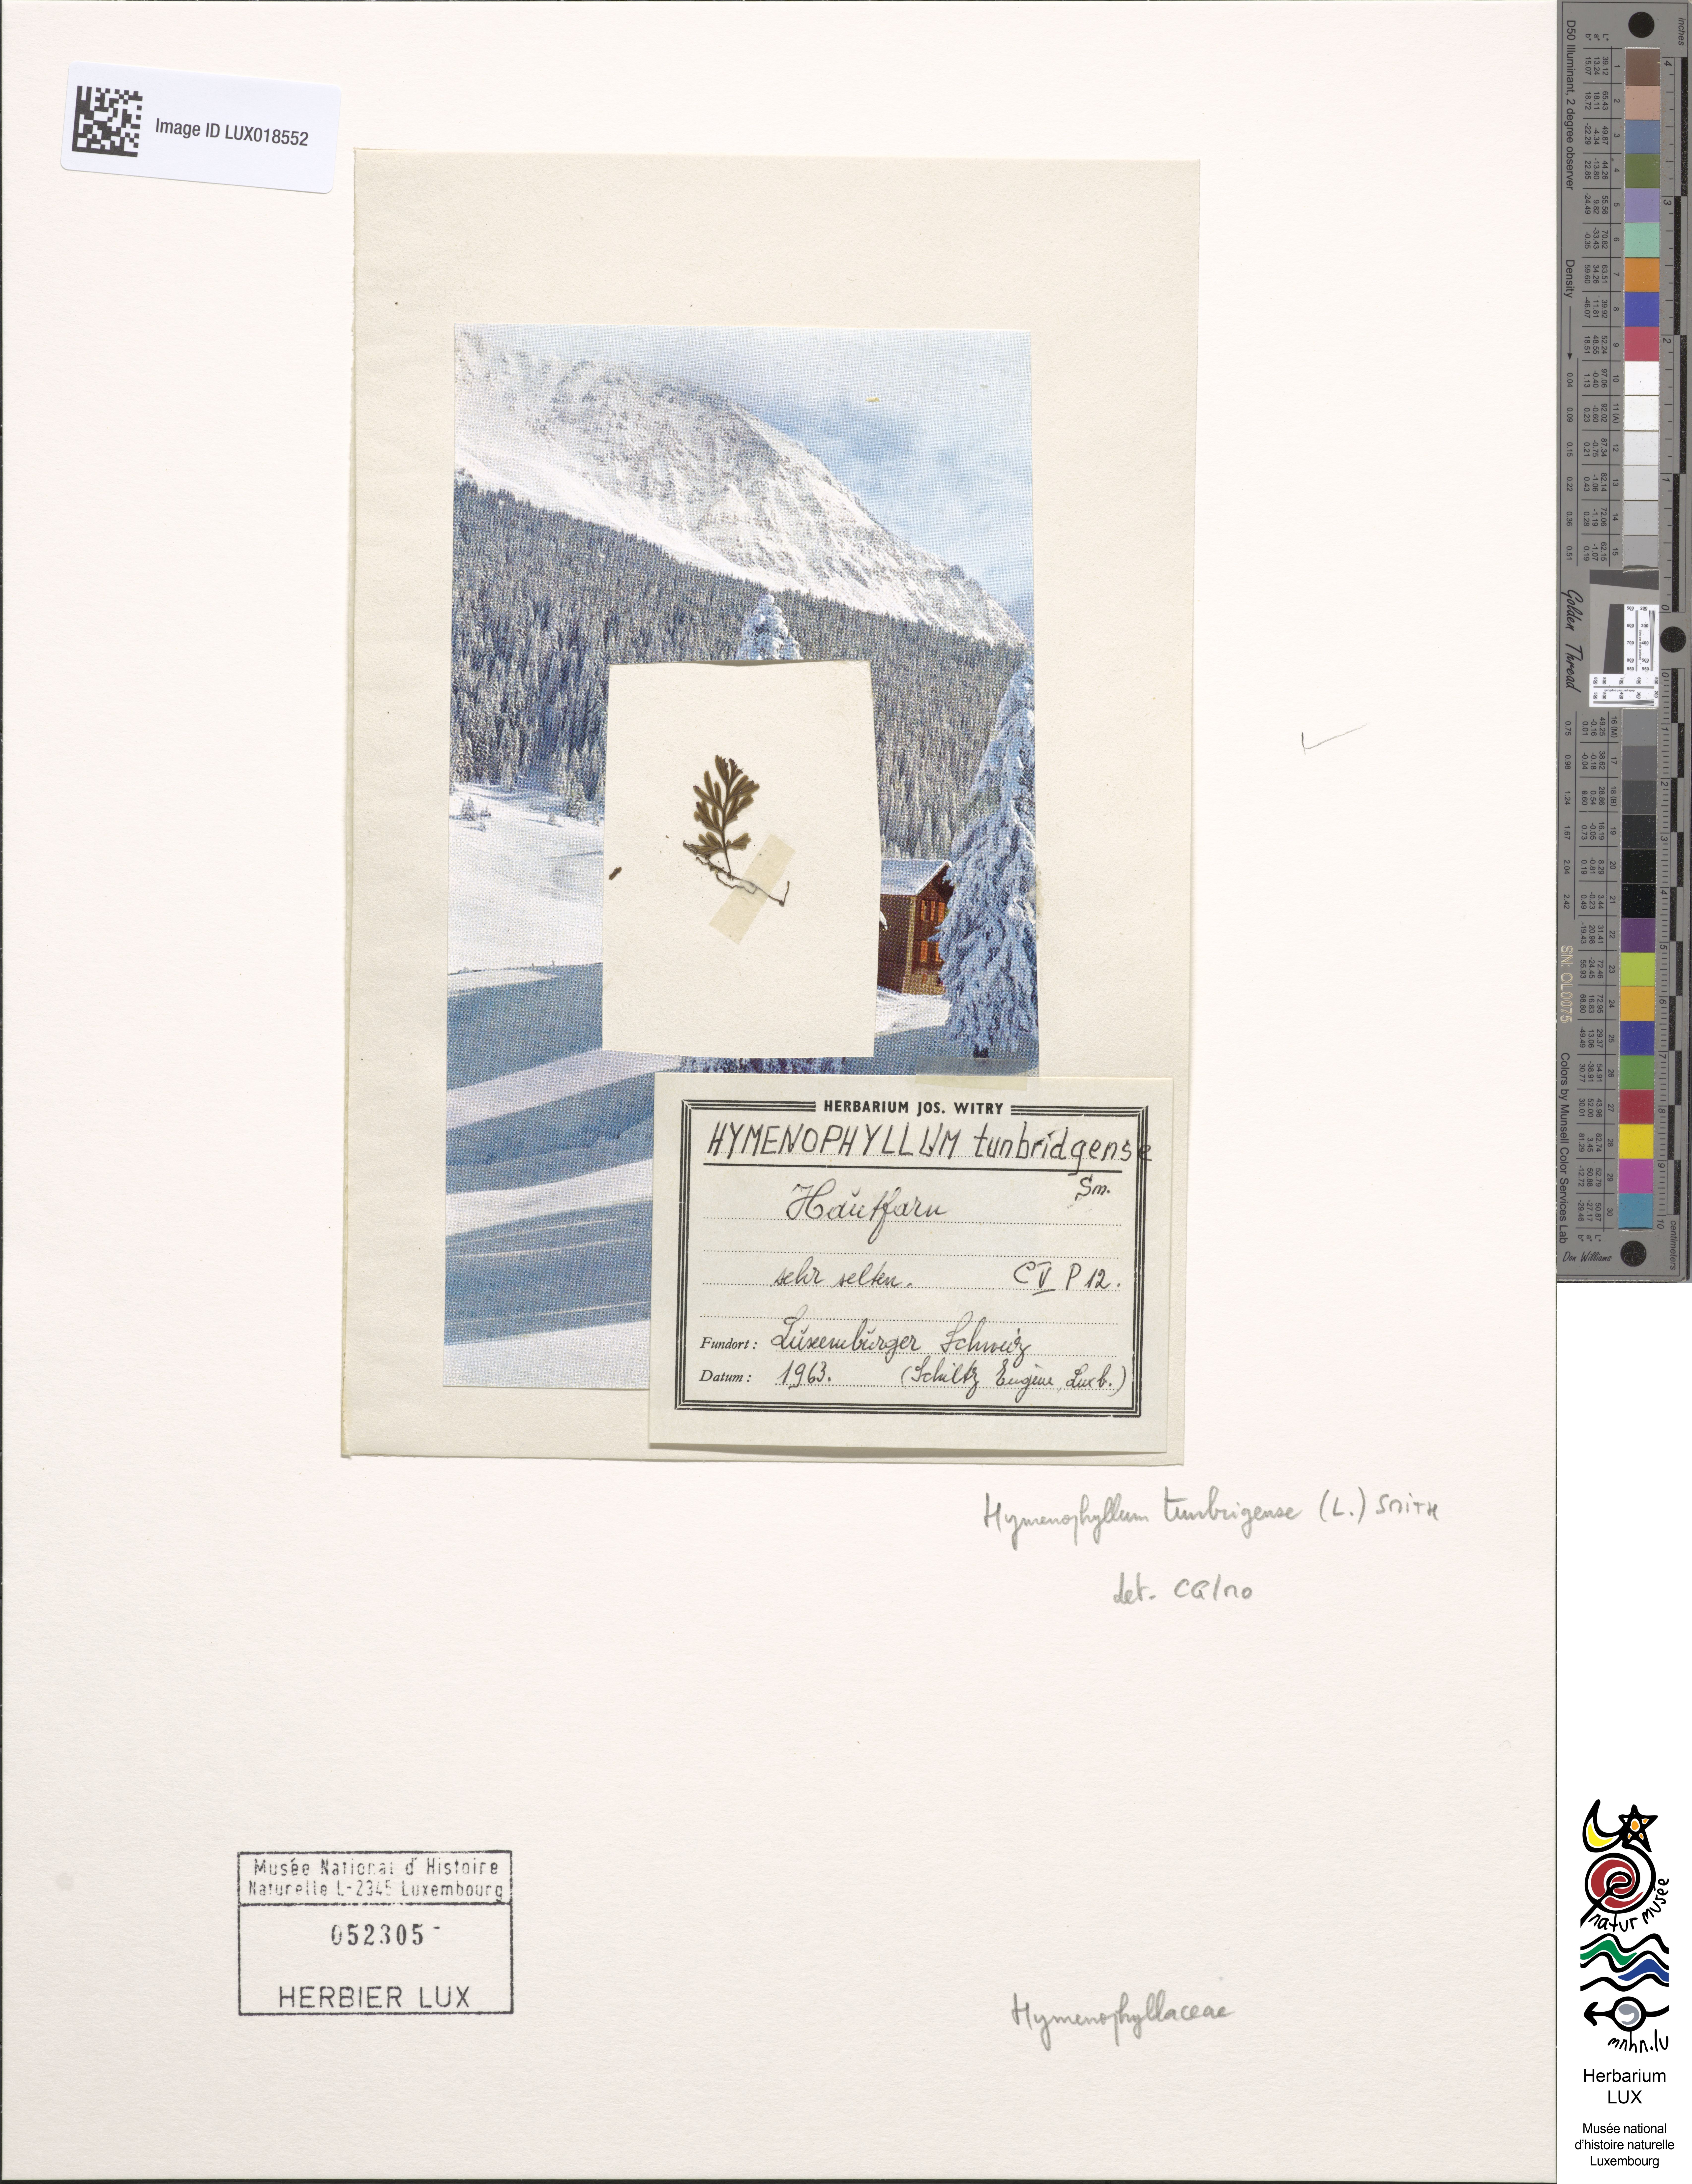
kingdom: Plantae
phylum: Tracheophyta
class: Polypodiopsida
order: Hymenophyllales
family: Hymenophyllaceae
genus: Hymenophyllum
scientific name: Hymenophyllum tunbrigense
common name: Tunbridge filmy fern
